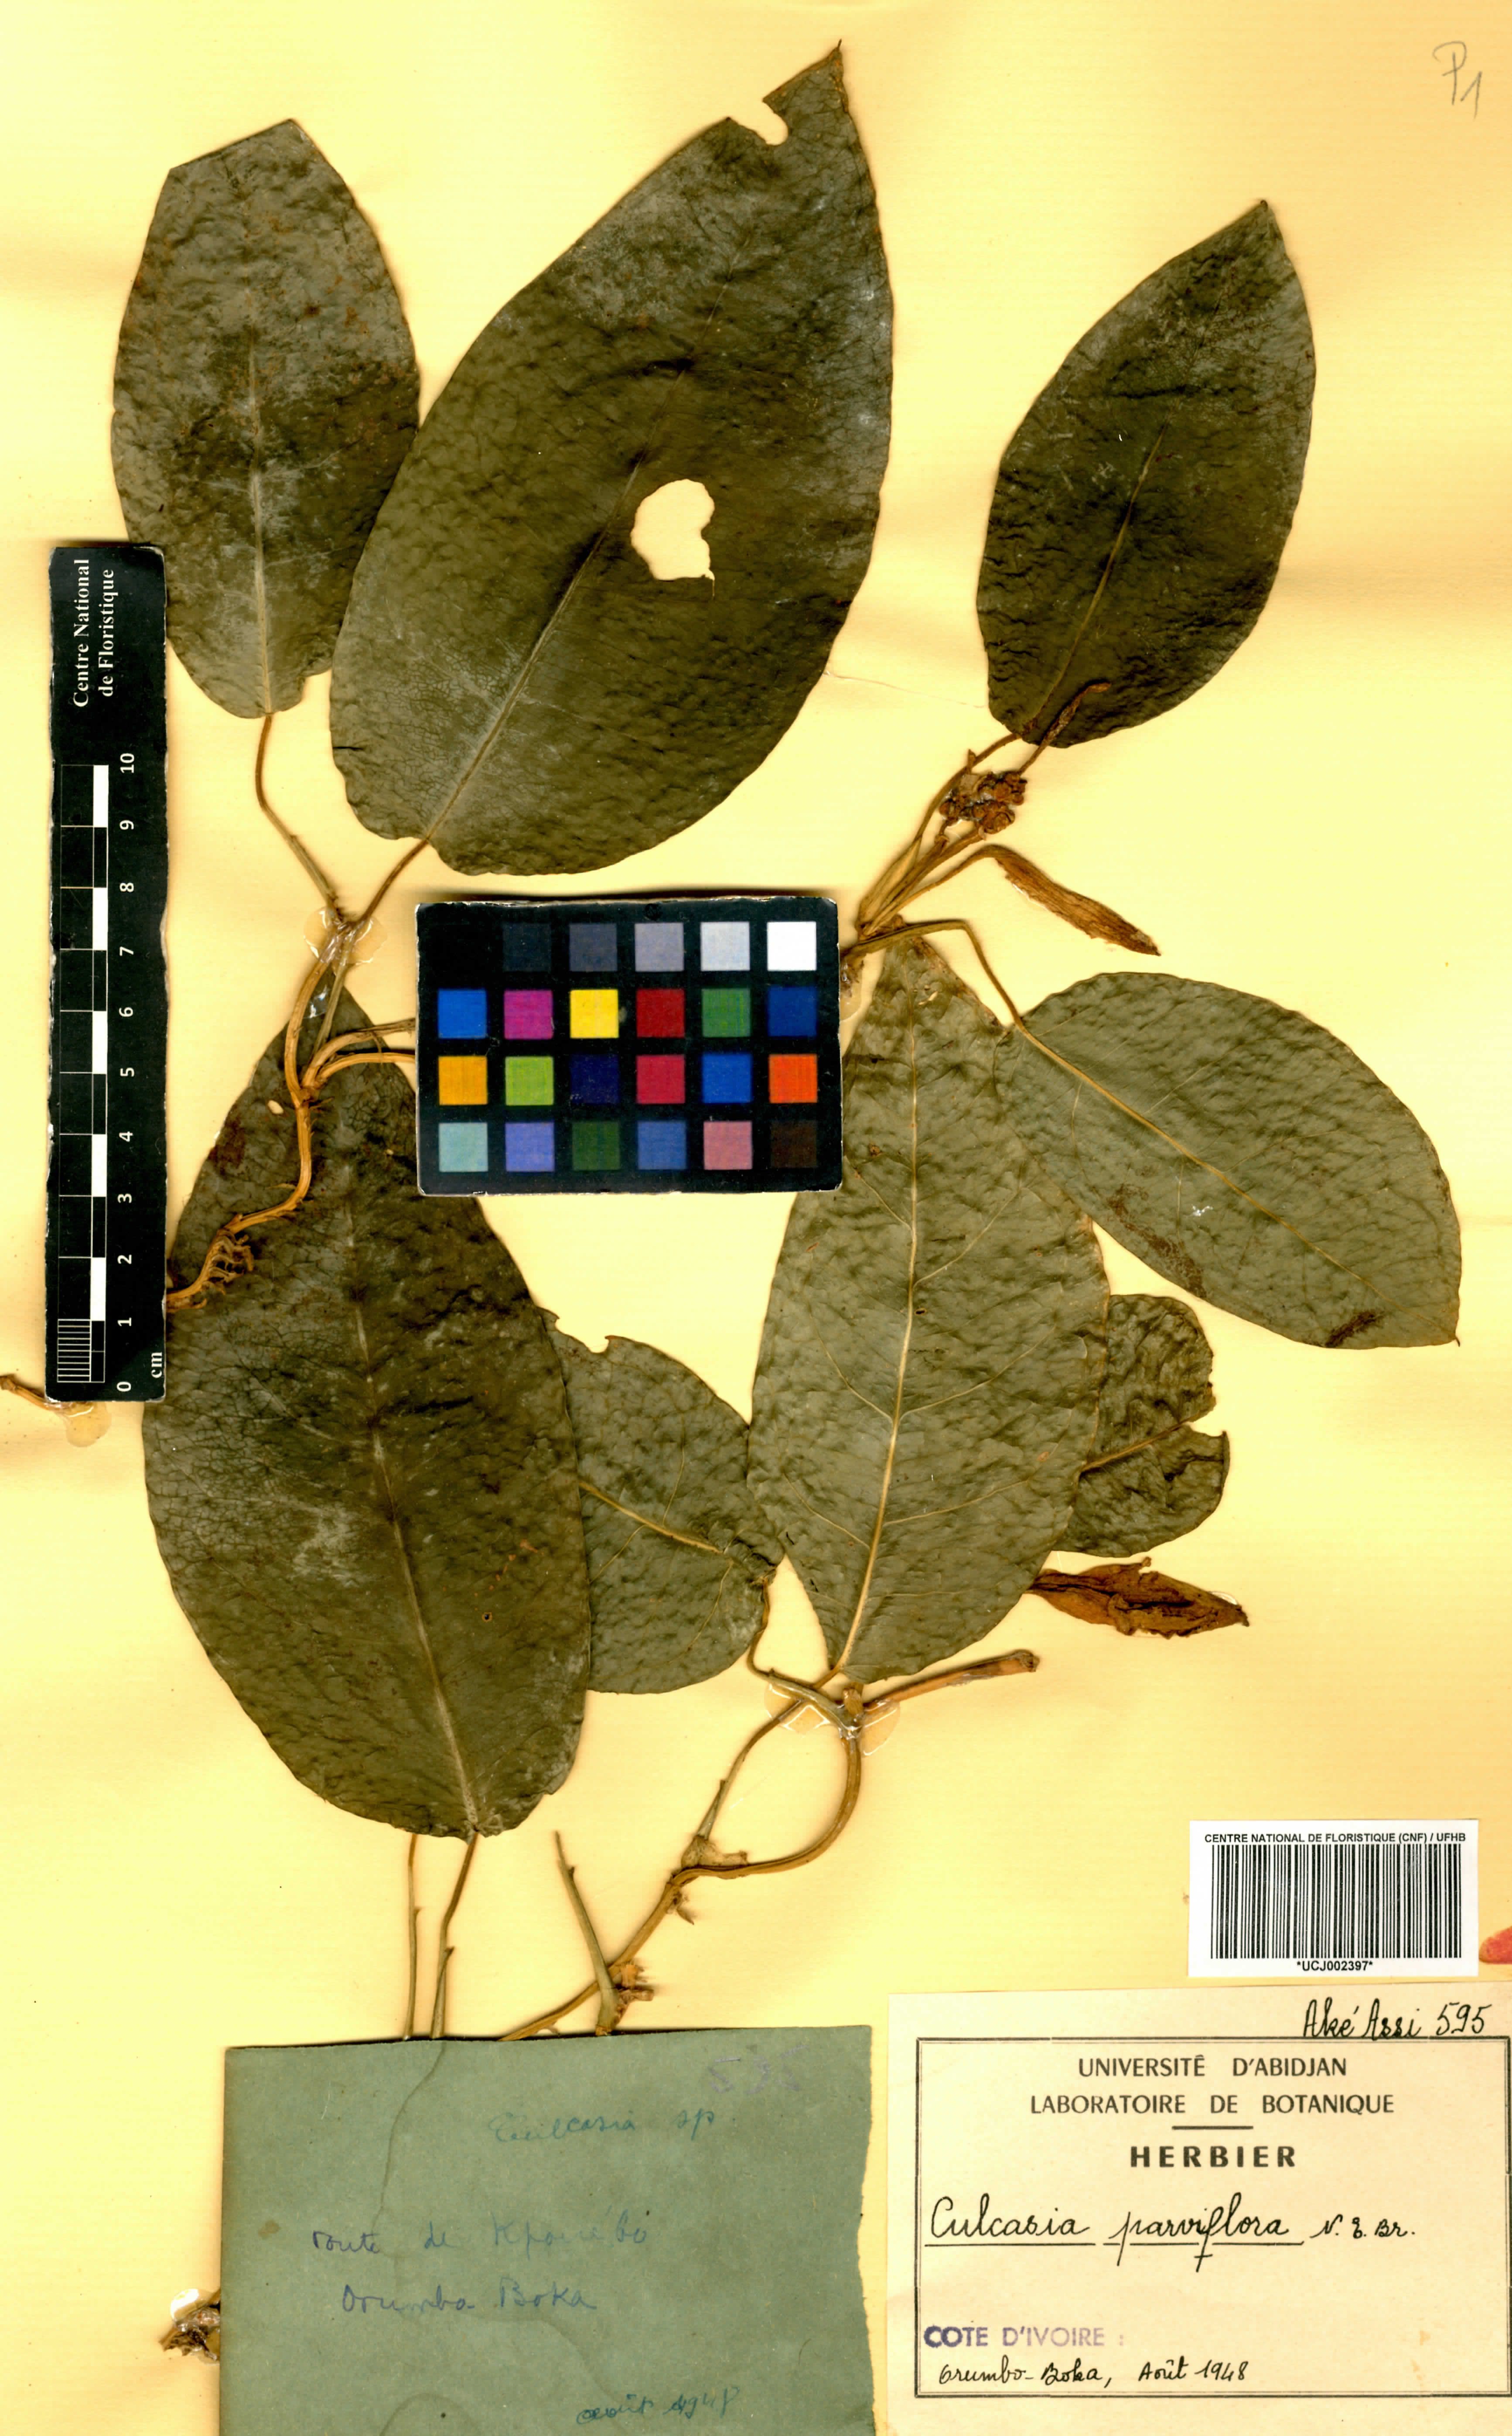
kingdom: Plantae
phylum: Tracheophyta
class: Liliopsida
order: Alismatales
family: Araceae
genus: Culcasia
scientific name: Culcasia parviflora
